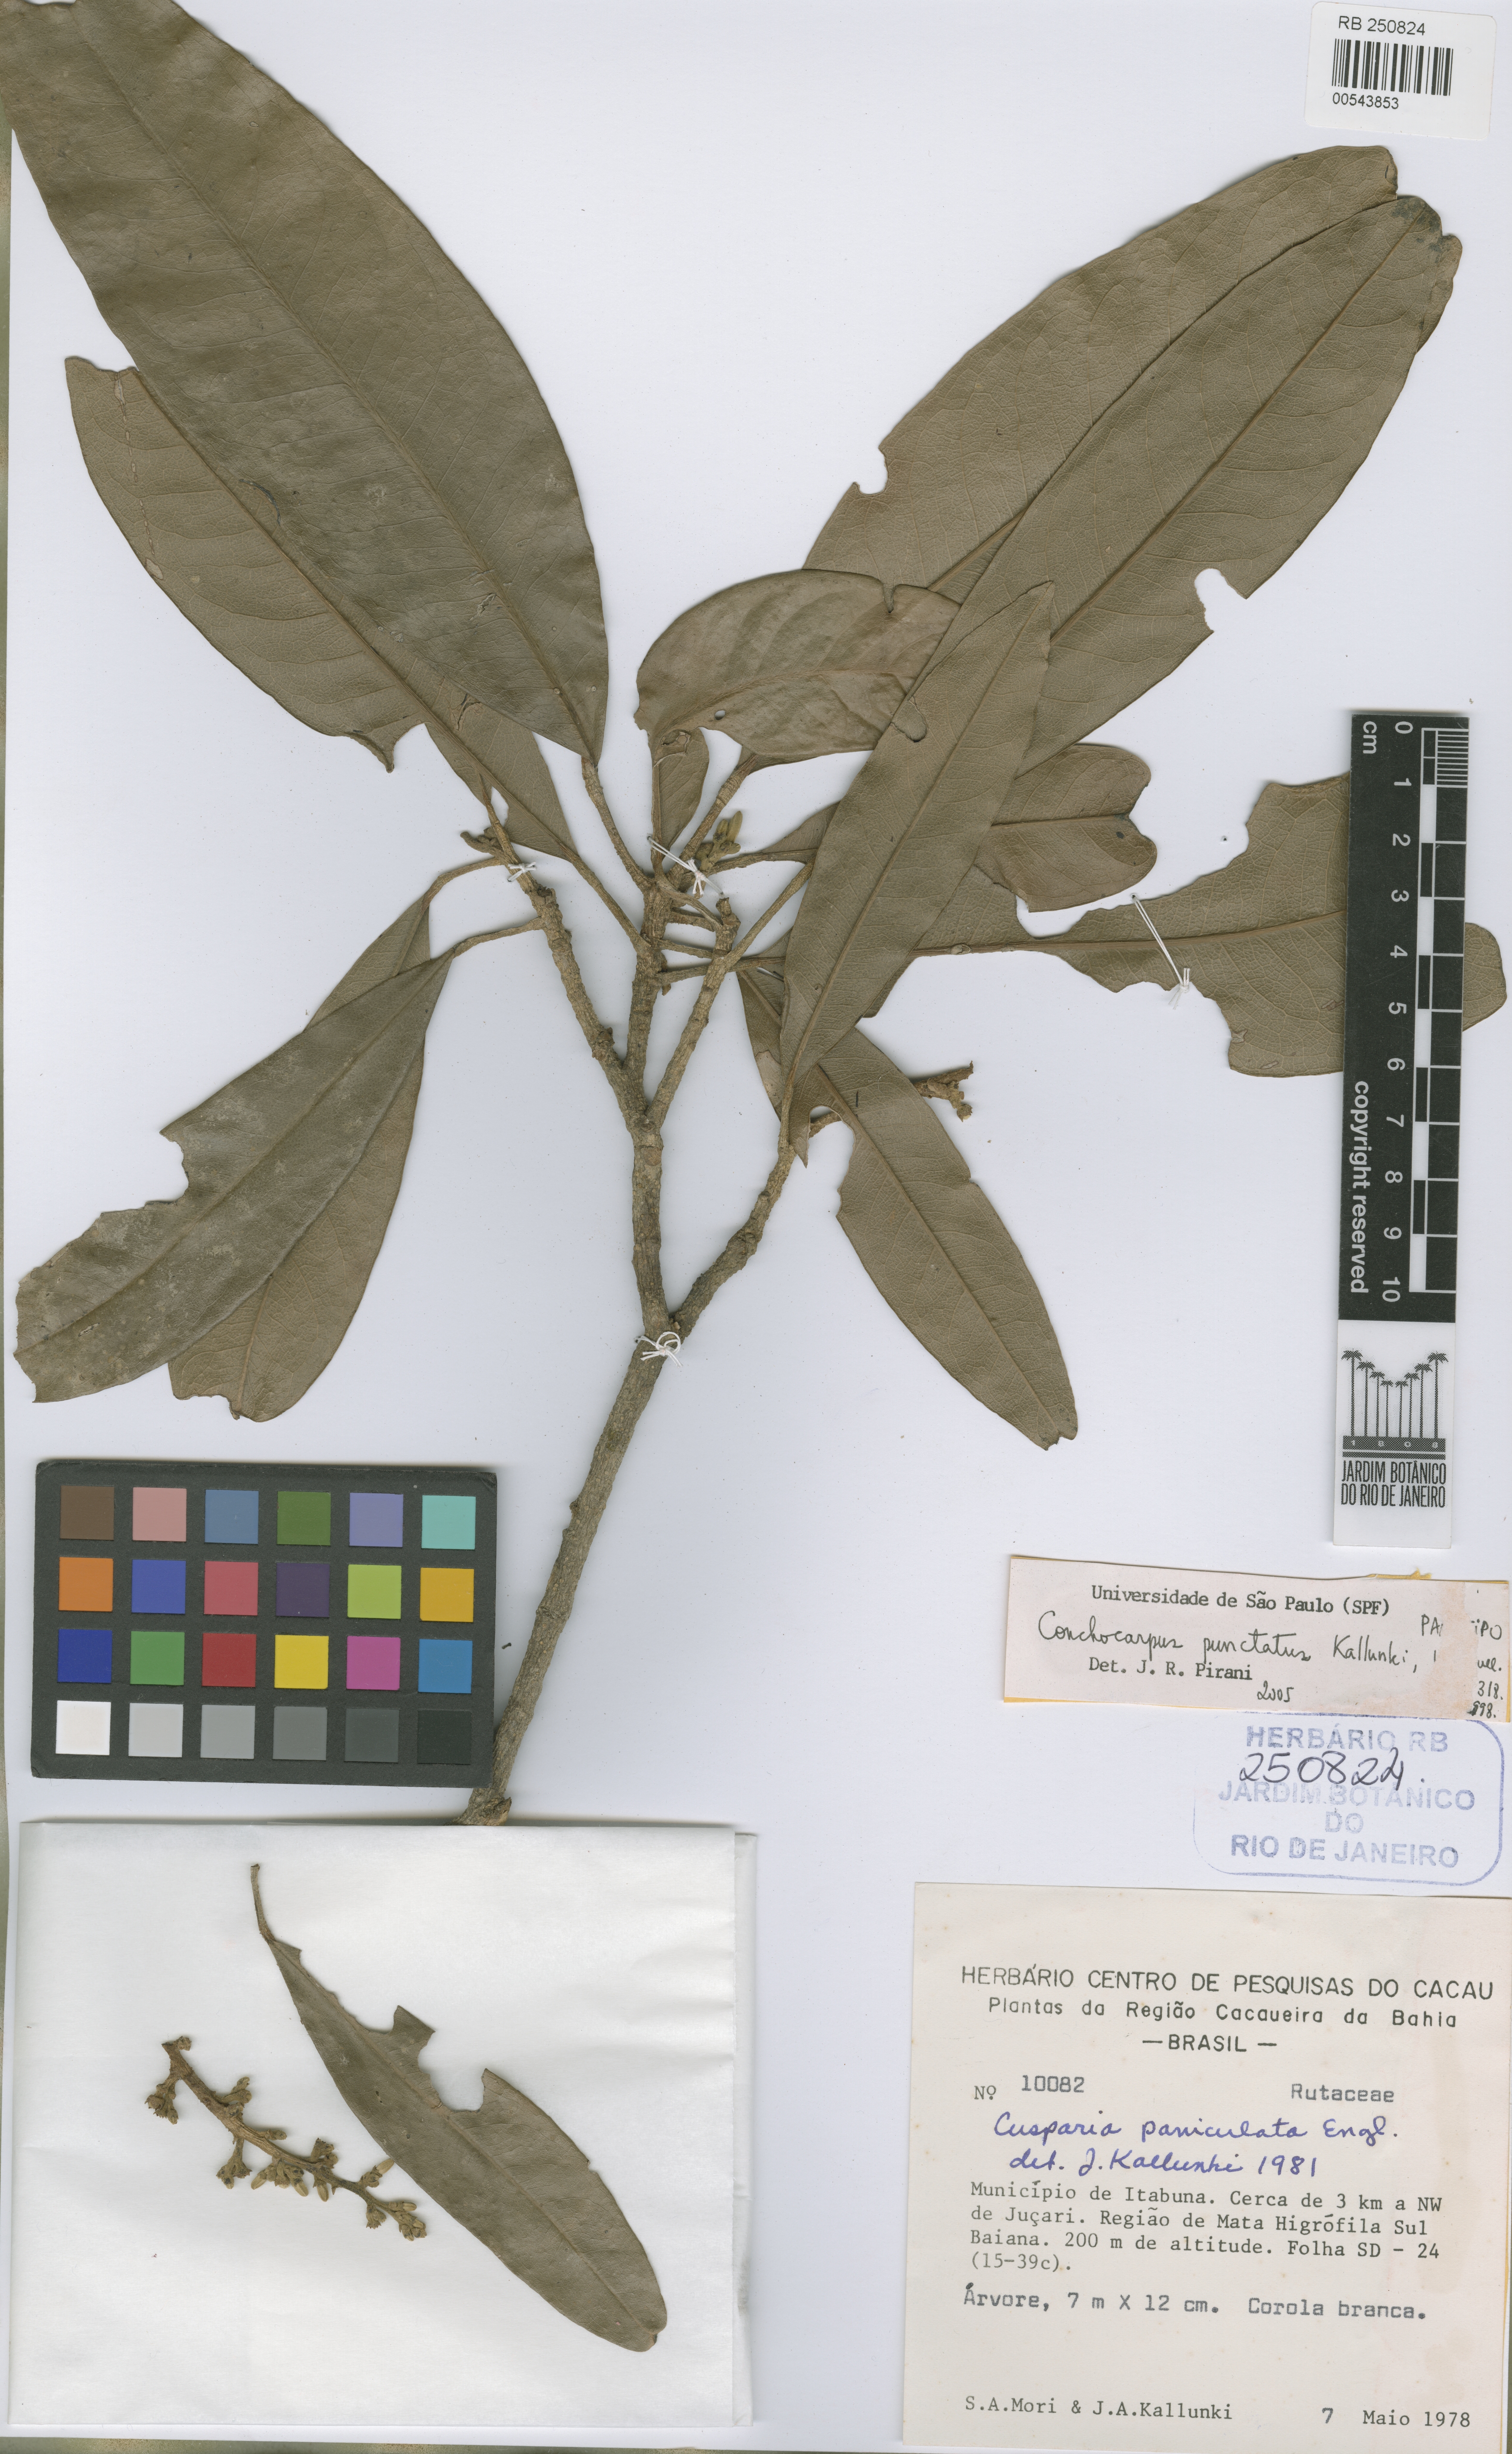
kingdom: Plantae
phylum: Tracheophyta
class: Magnoliopsida
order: Sapindales
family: Rutaceae
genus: Conchocarpus
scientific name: Conchocarpus punctatus
